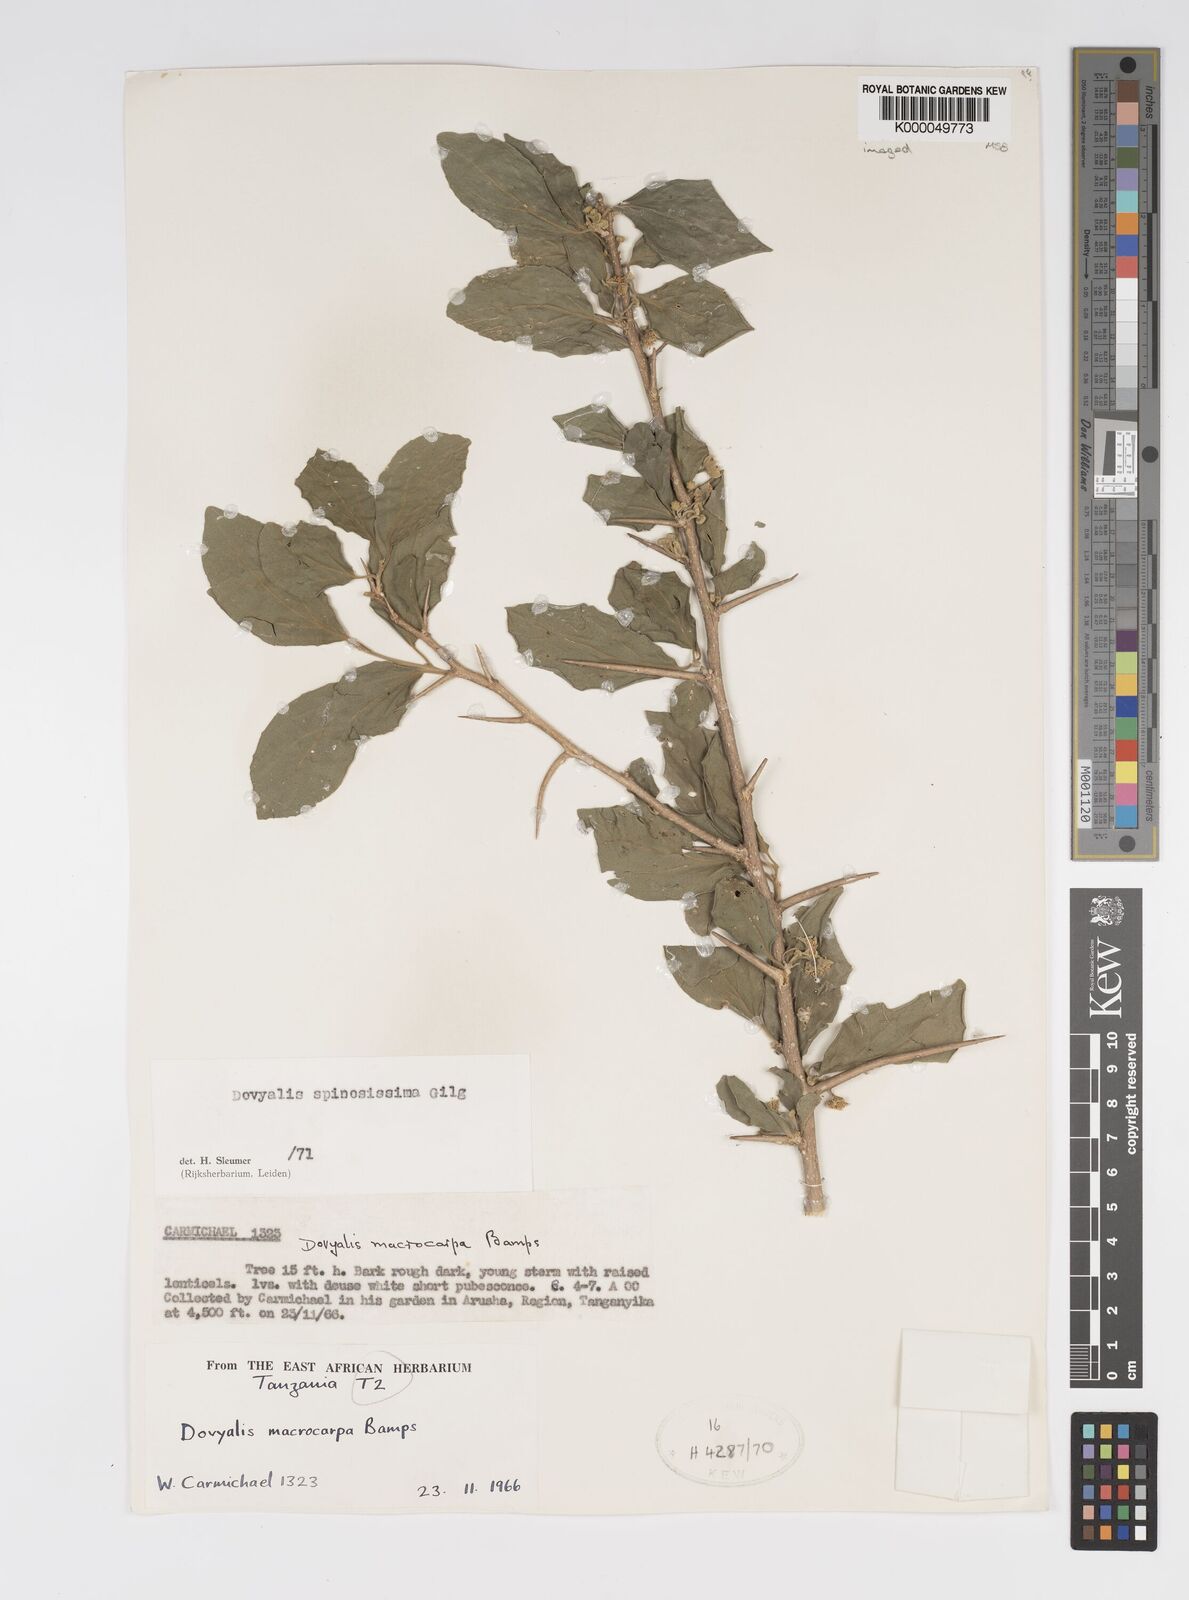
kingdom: Plantae
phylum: Tracheophyta
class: Magnoliopsida
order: Malpighiales
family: Salicaceae
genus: Dovyalis
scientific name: Dovyalis spinosissima
